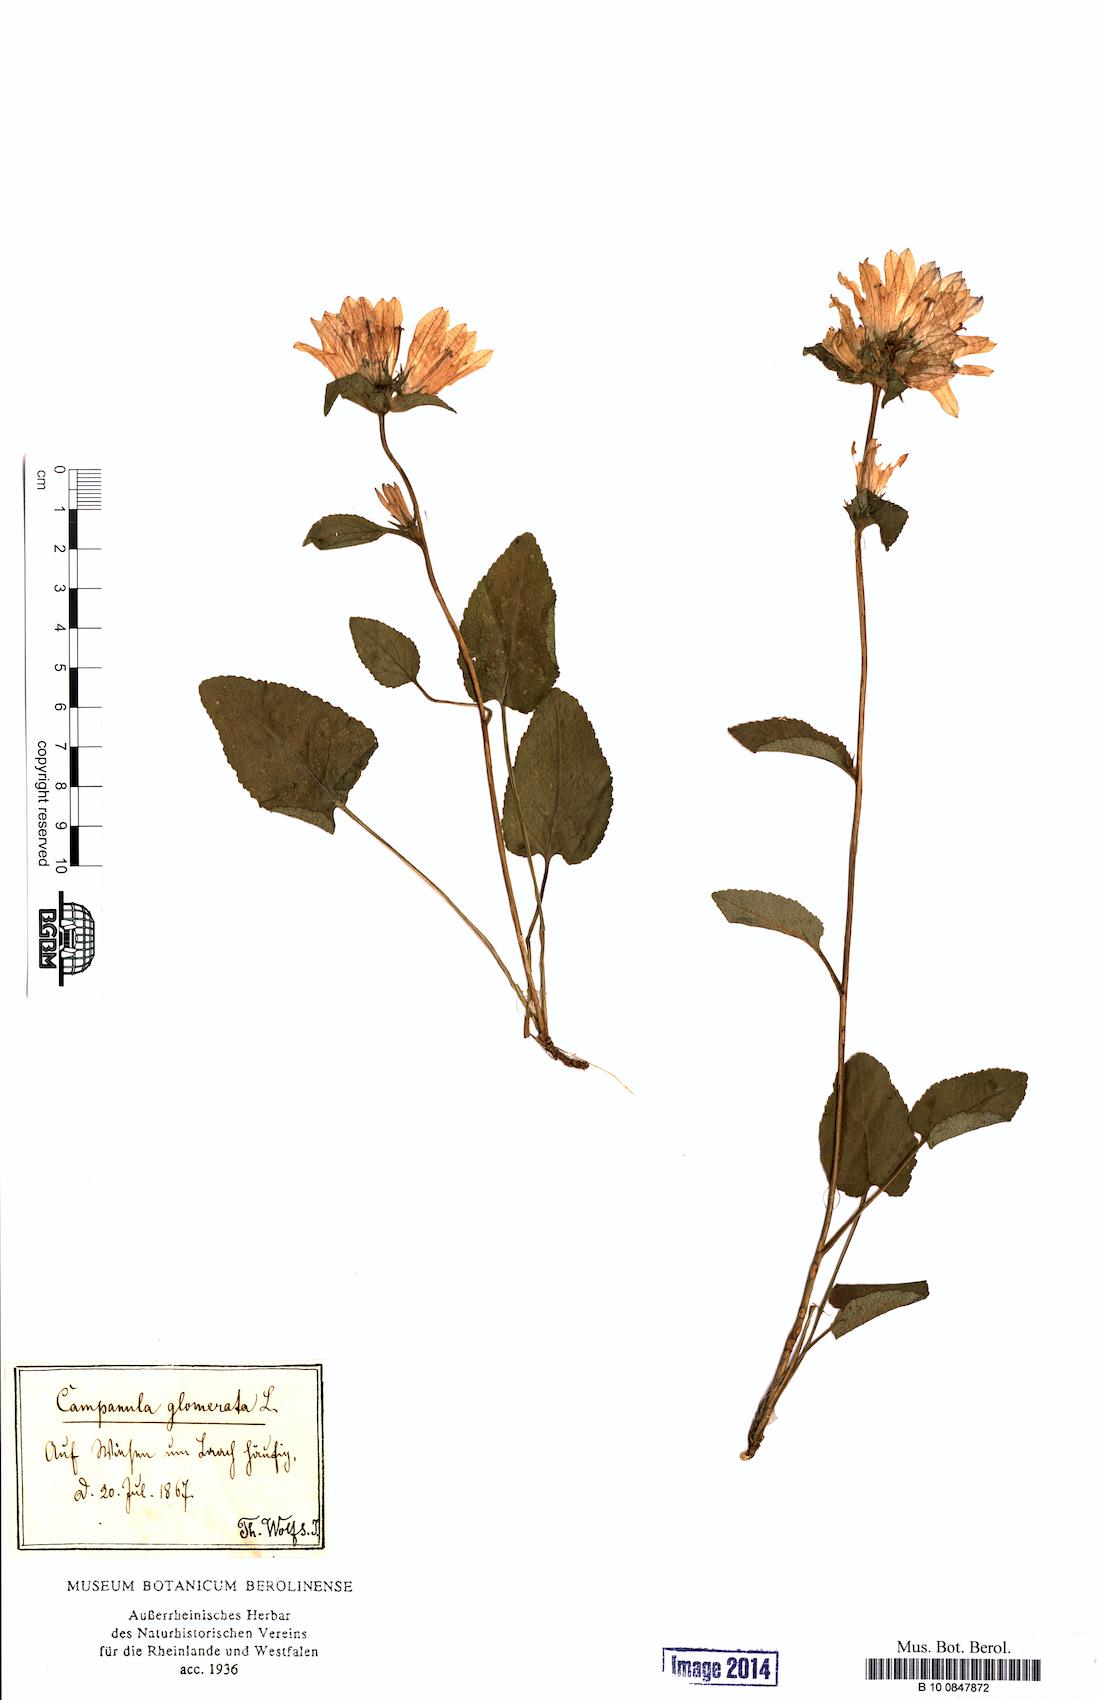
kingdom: Plantae
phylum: Tracheophyta
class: Magnoliopsida
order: Asterales
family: Campanulaceae
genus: Campanula
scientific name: Campanula glomerata
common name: Clustered bellflower
